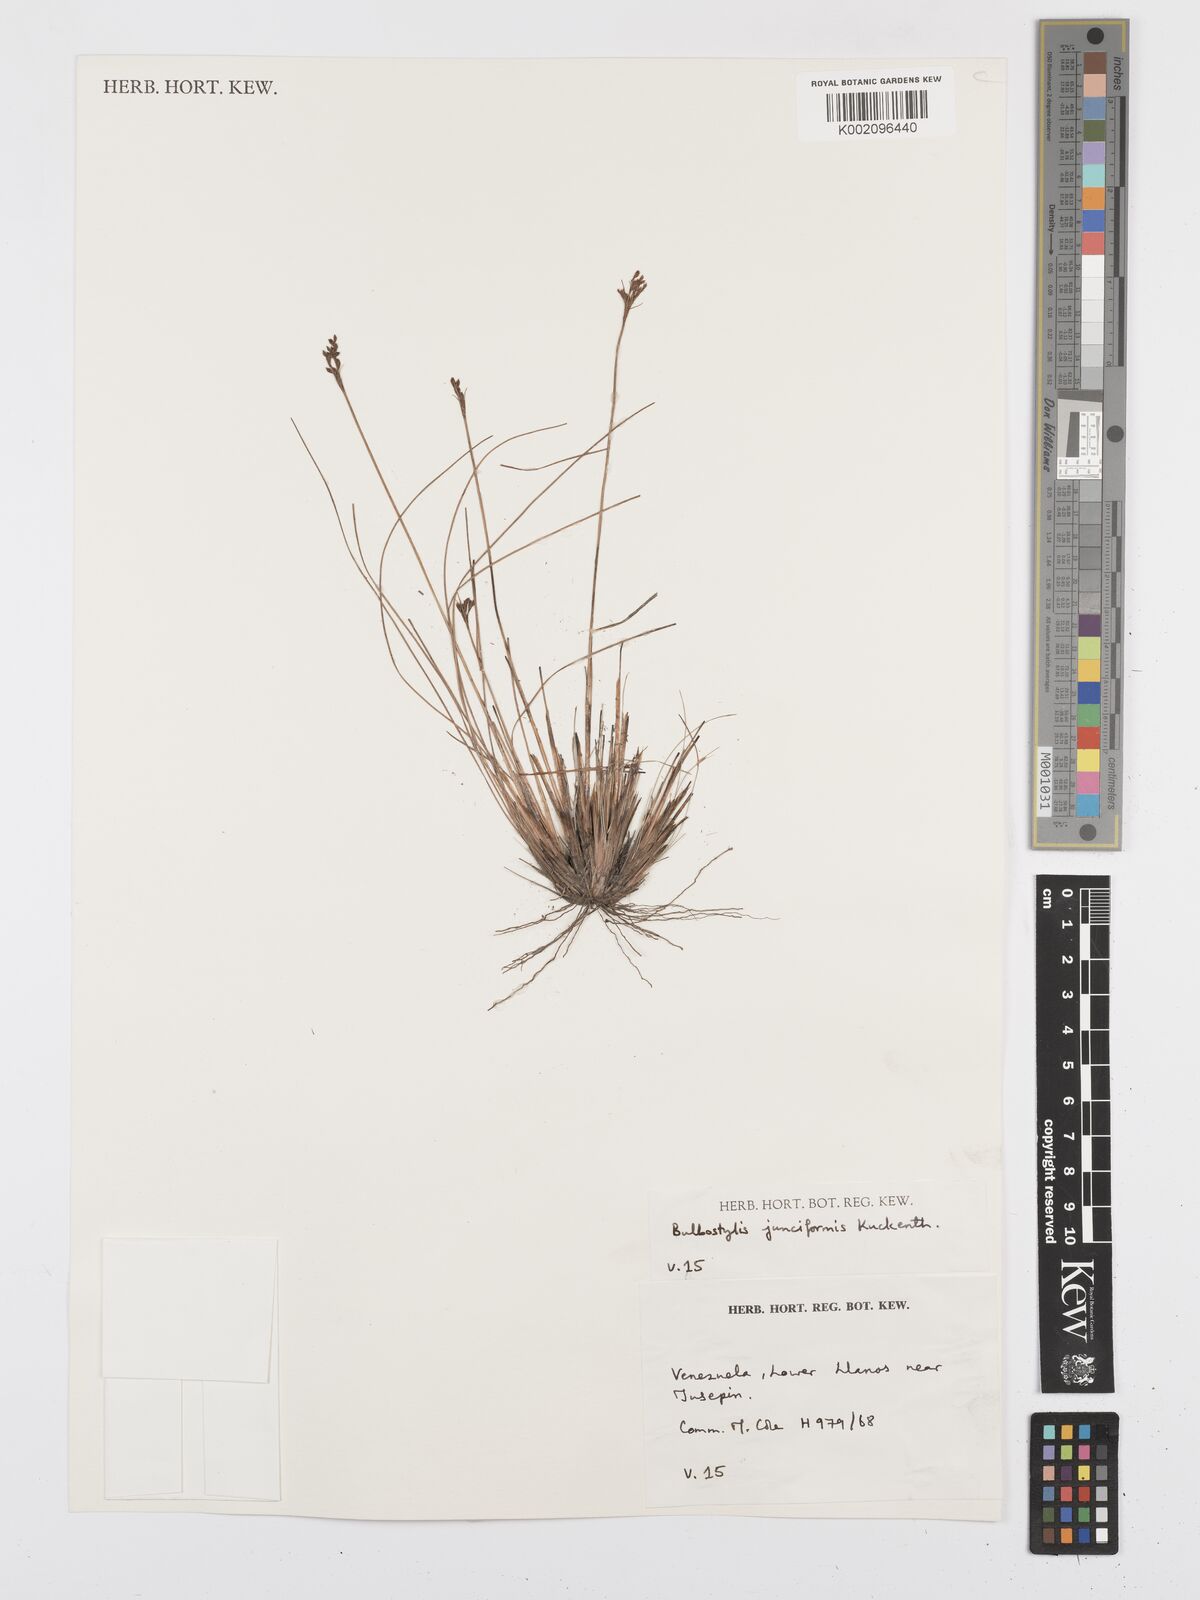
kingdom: Plantae
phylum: Tracheophyta
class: Liliopsida
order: Poales
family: Cyperaceae
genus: Bulbostylis
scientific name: Bulbostylis junciformis
